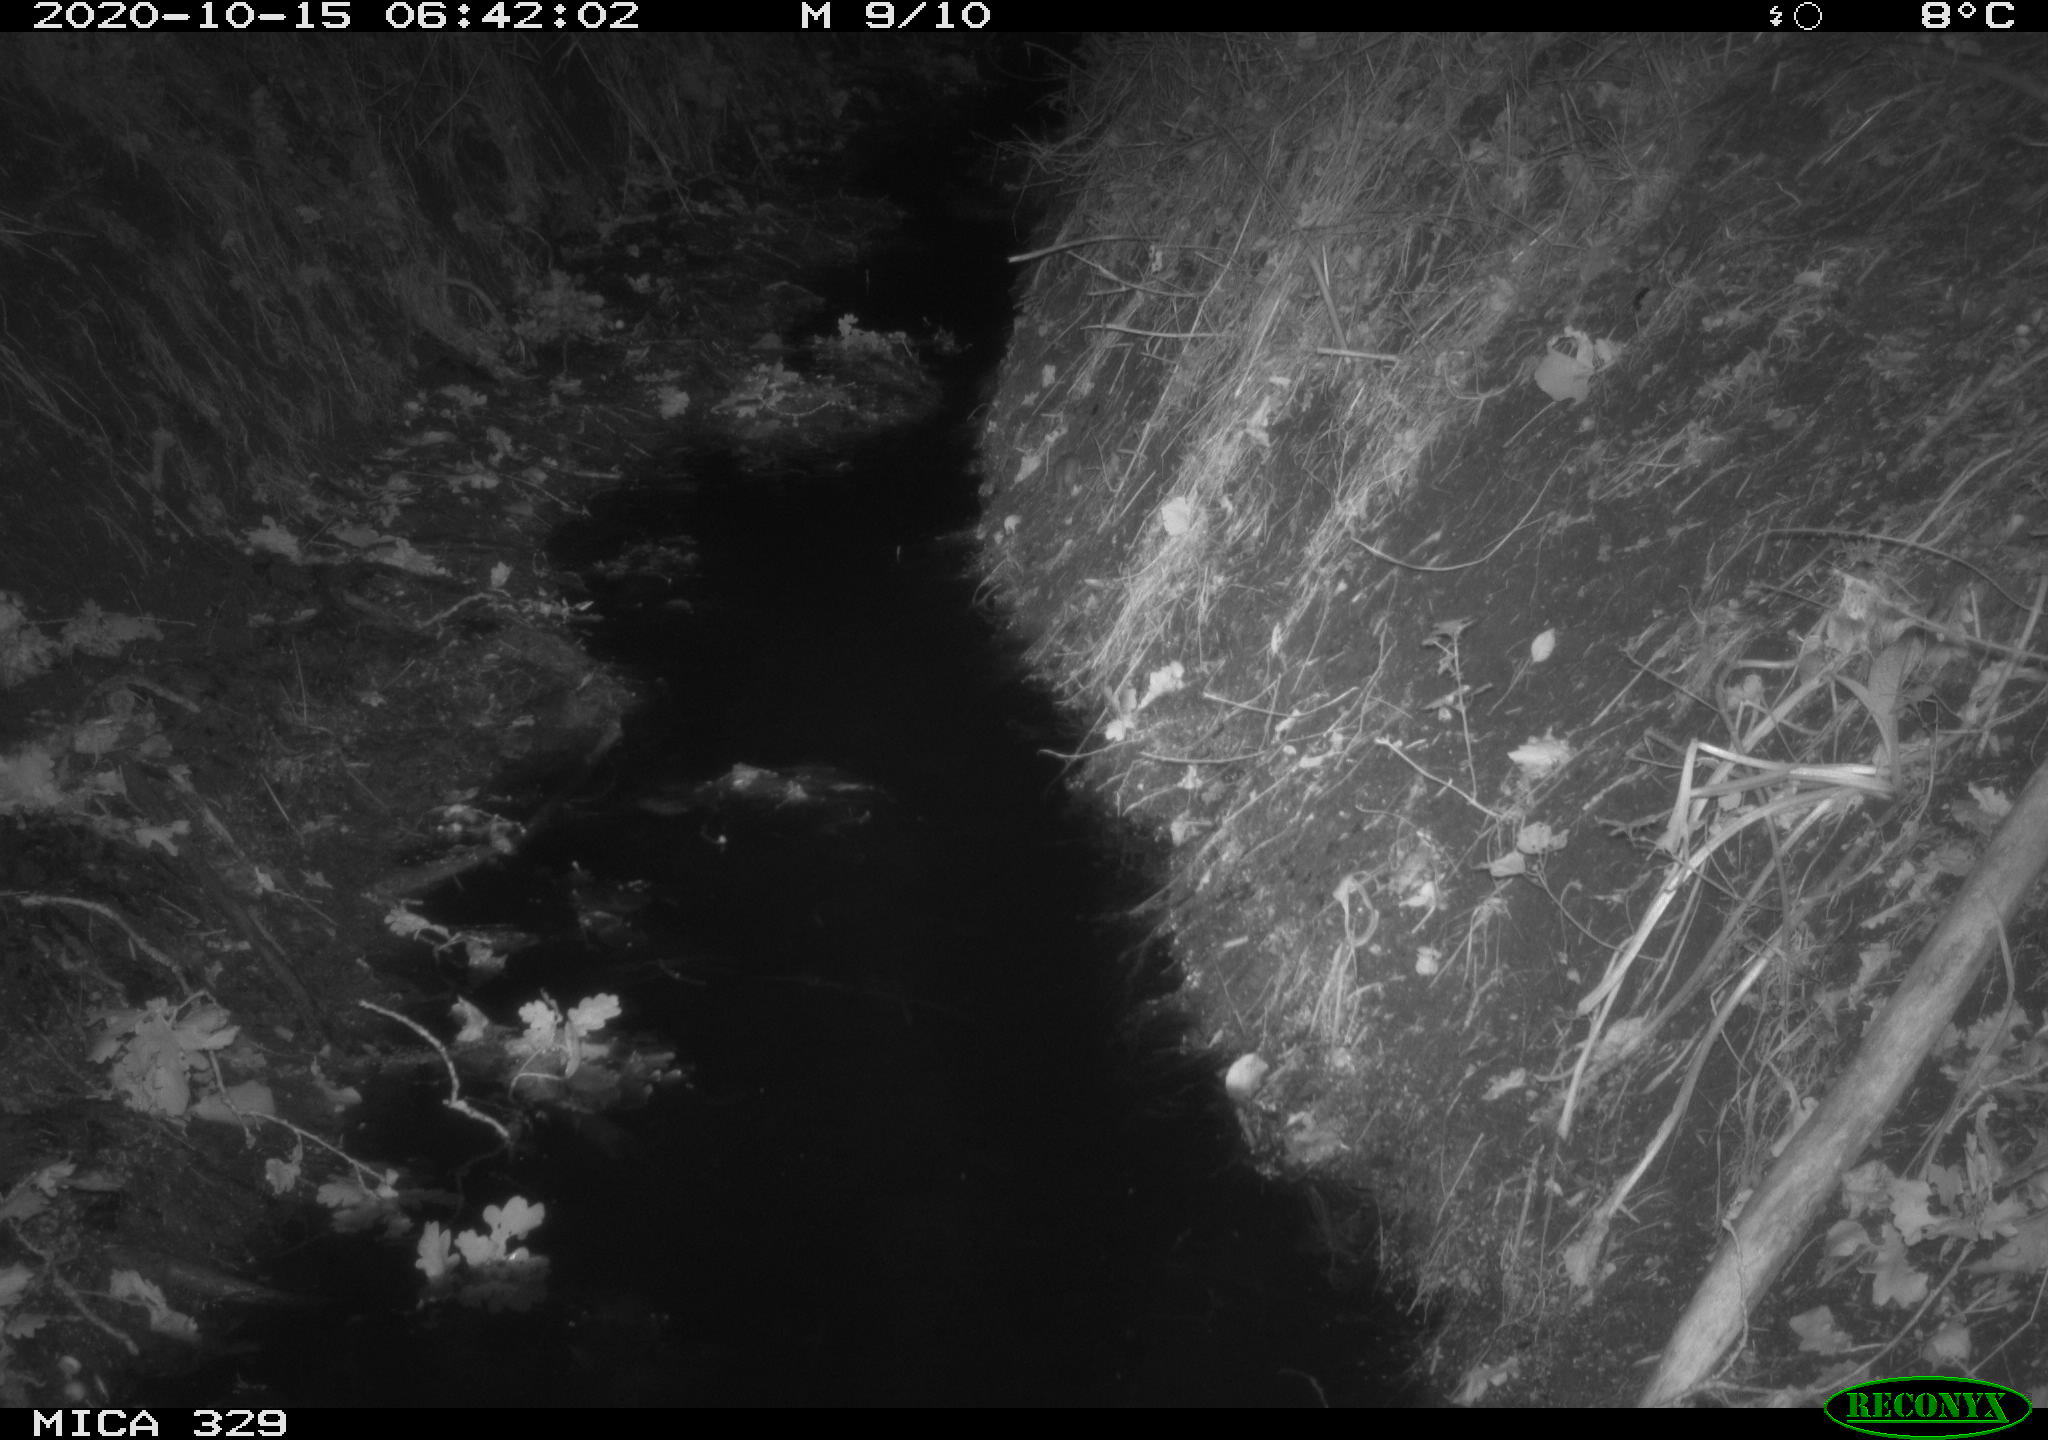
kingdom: Animalia
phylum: Chordata
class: Mammalia
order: Rodentia
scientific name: Rodentia
